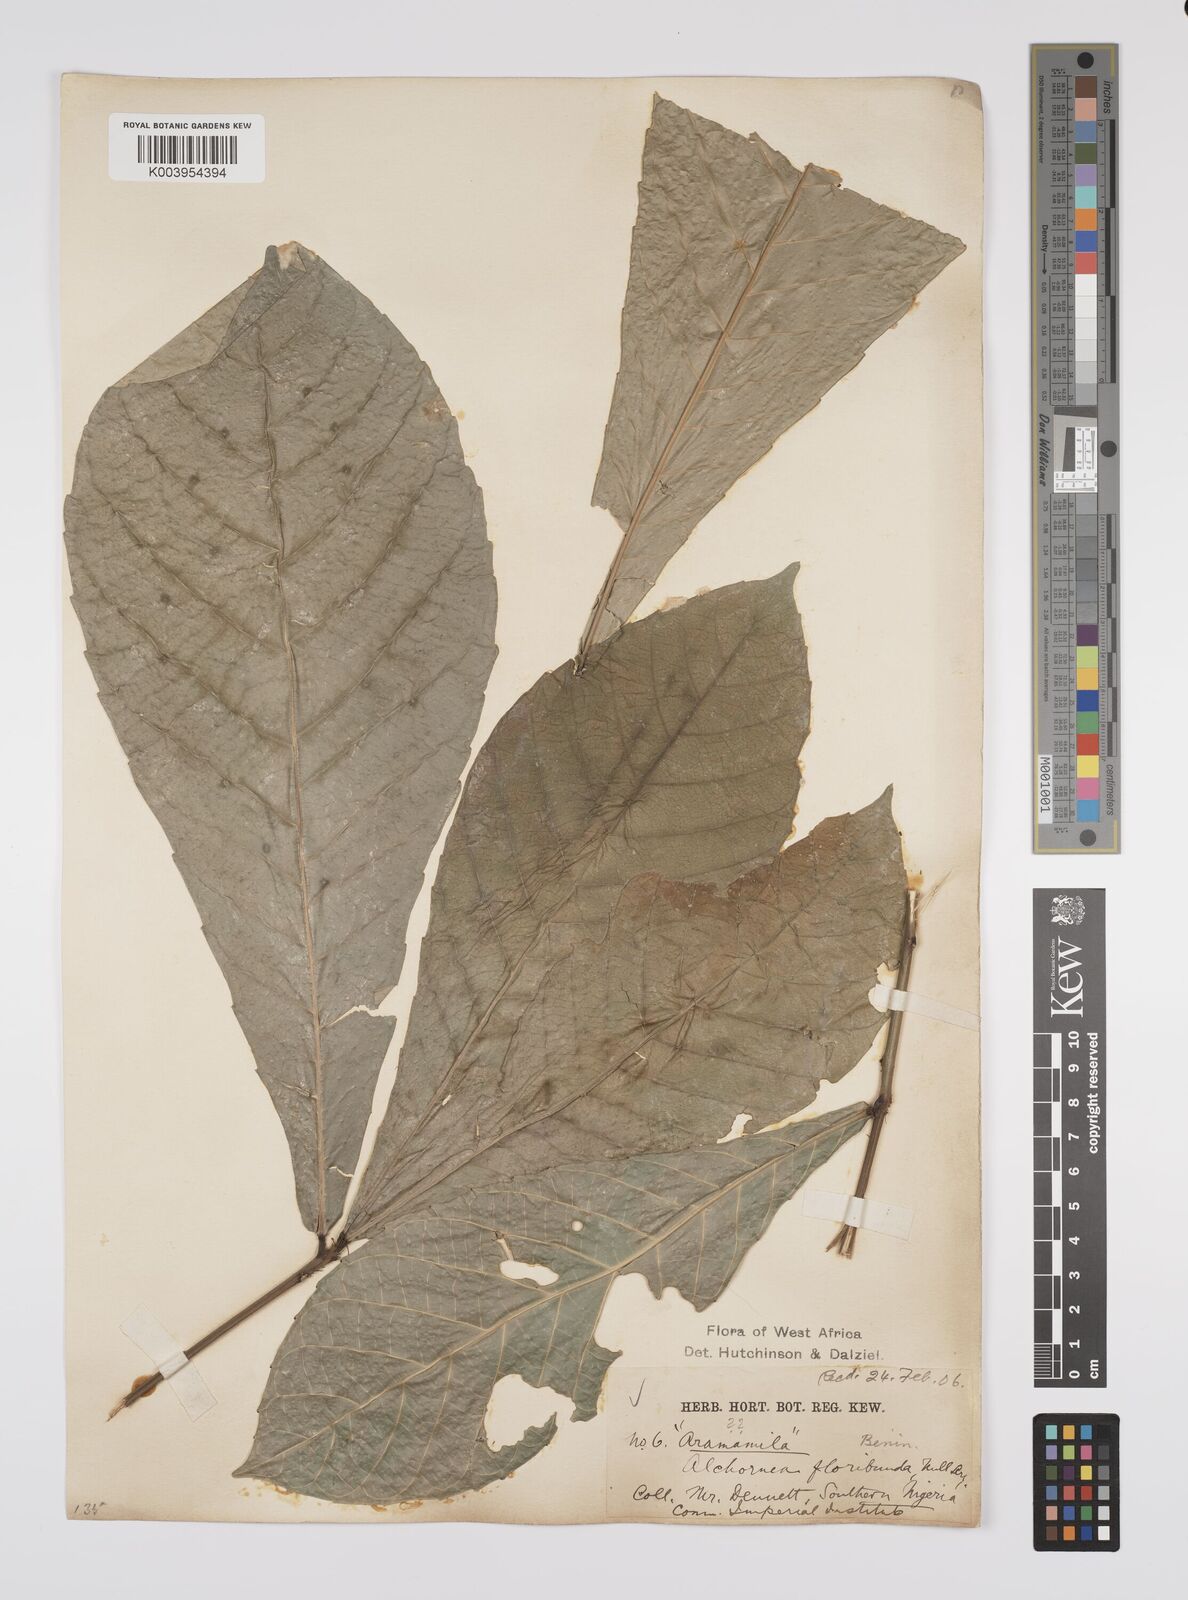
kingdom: Plantae
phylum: Tracheophyta
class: Magnoliopsida
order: Malpighiales
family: Euphorbiaceae
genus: Alchornea
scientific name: Alchornea floribunda
